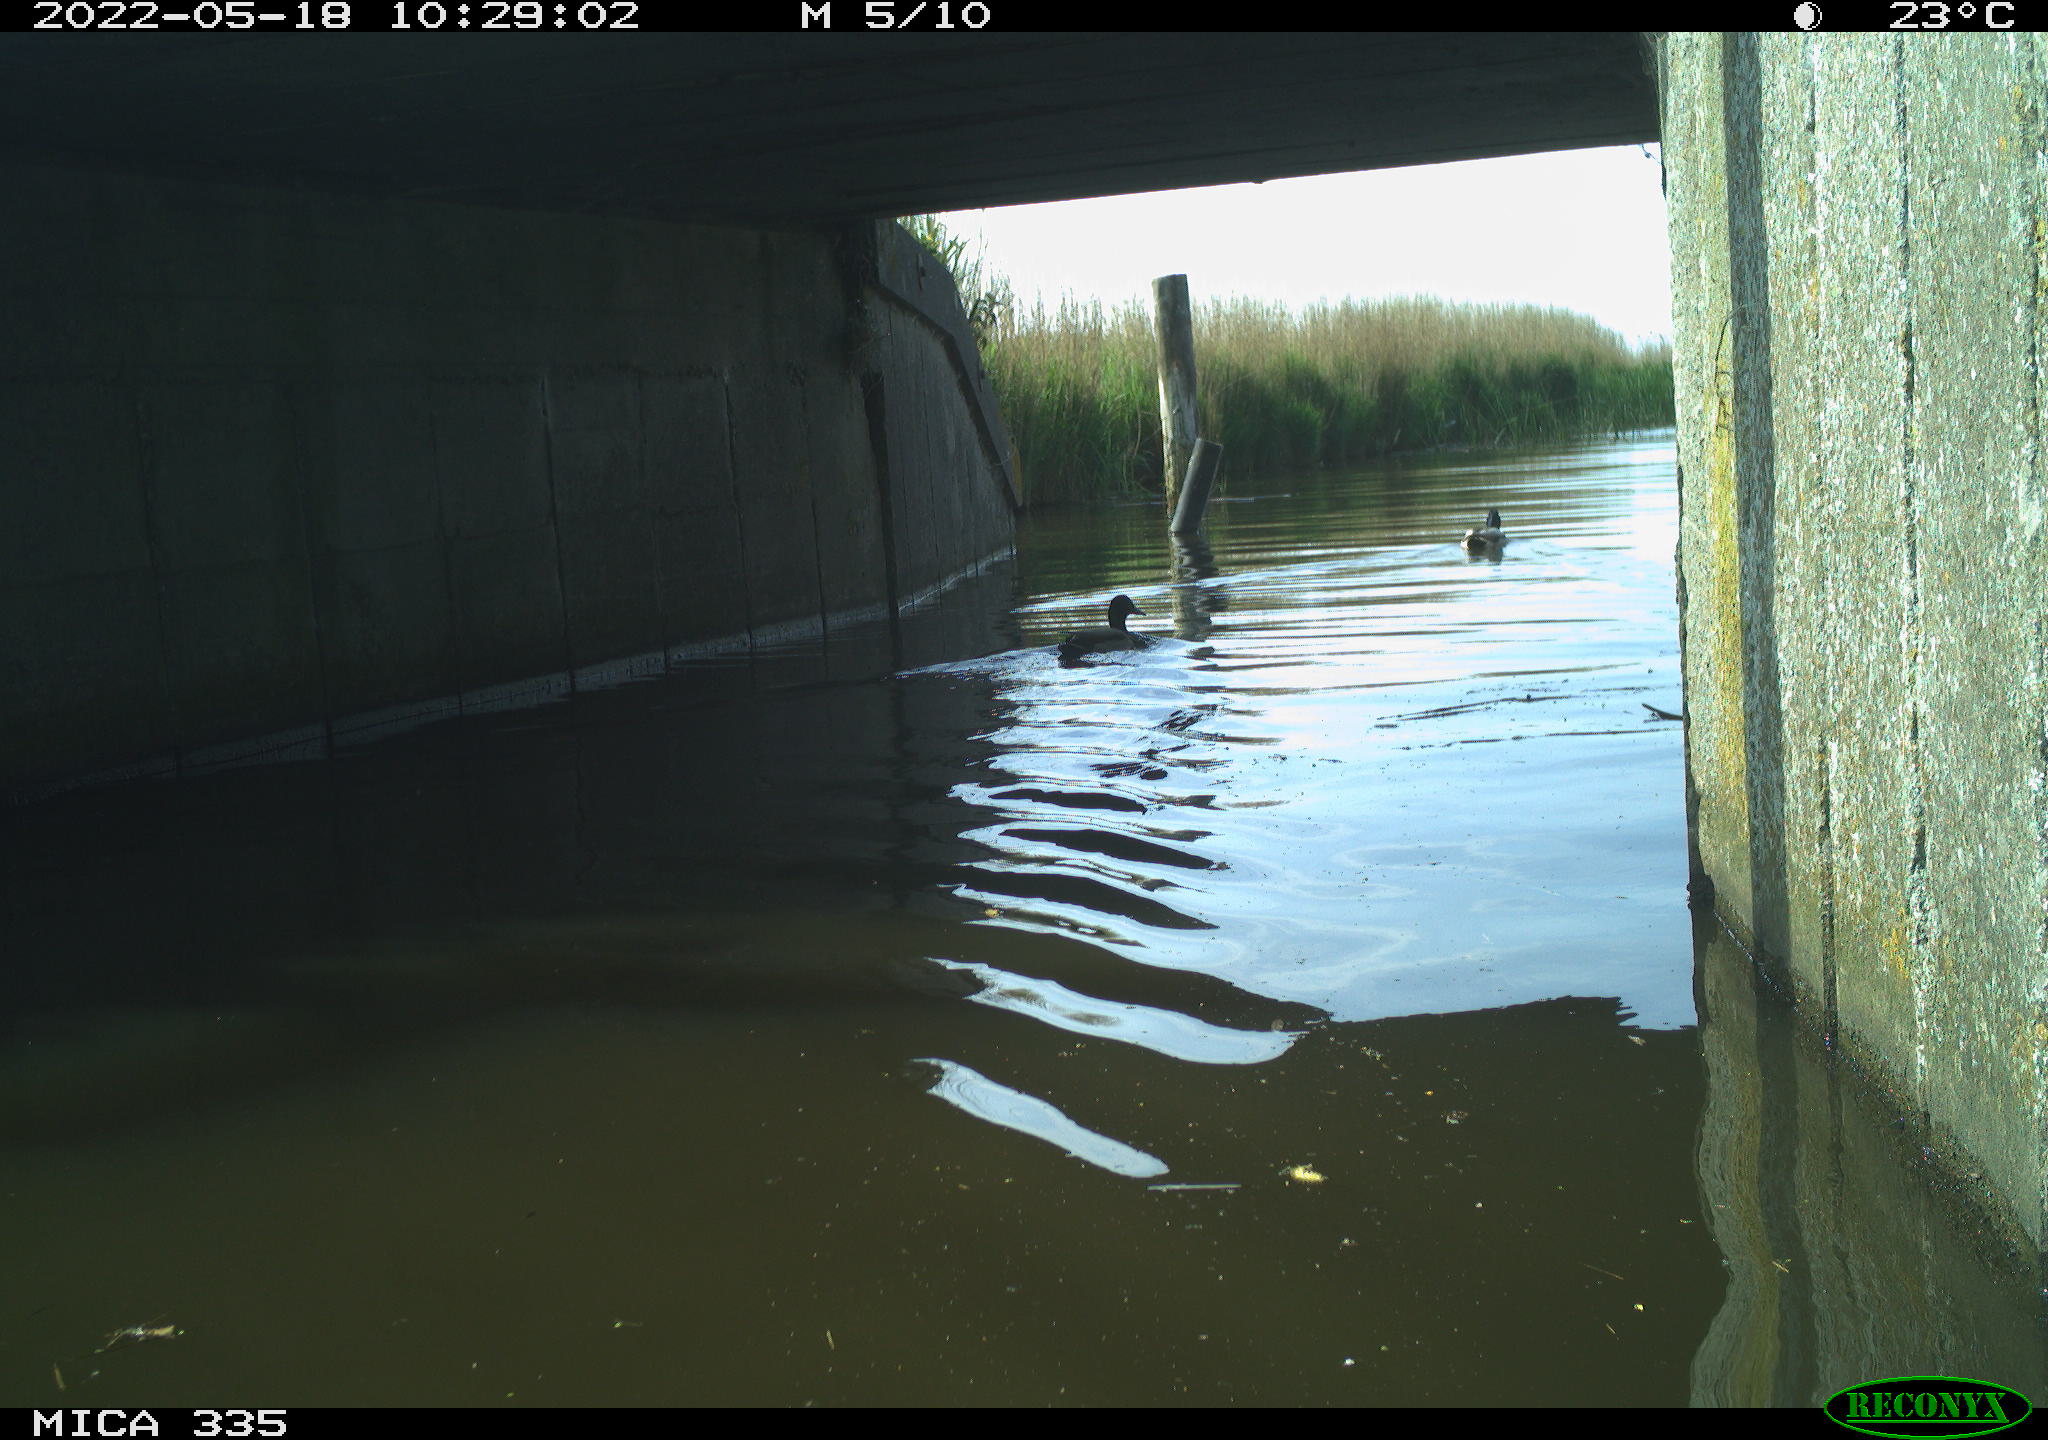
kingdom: Animalia
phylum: Chordata
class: Aves
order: Anseriformes
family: Anatidae
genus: Anas
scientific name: Anas platyrhynchos
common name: Mallard
